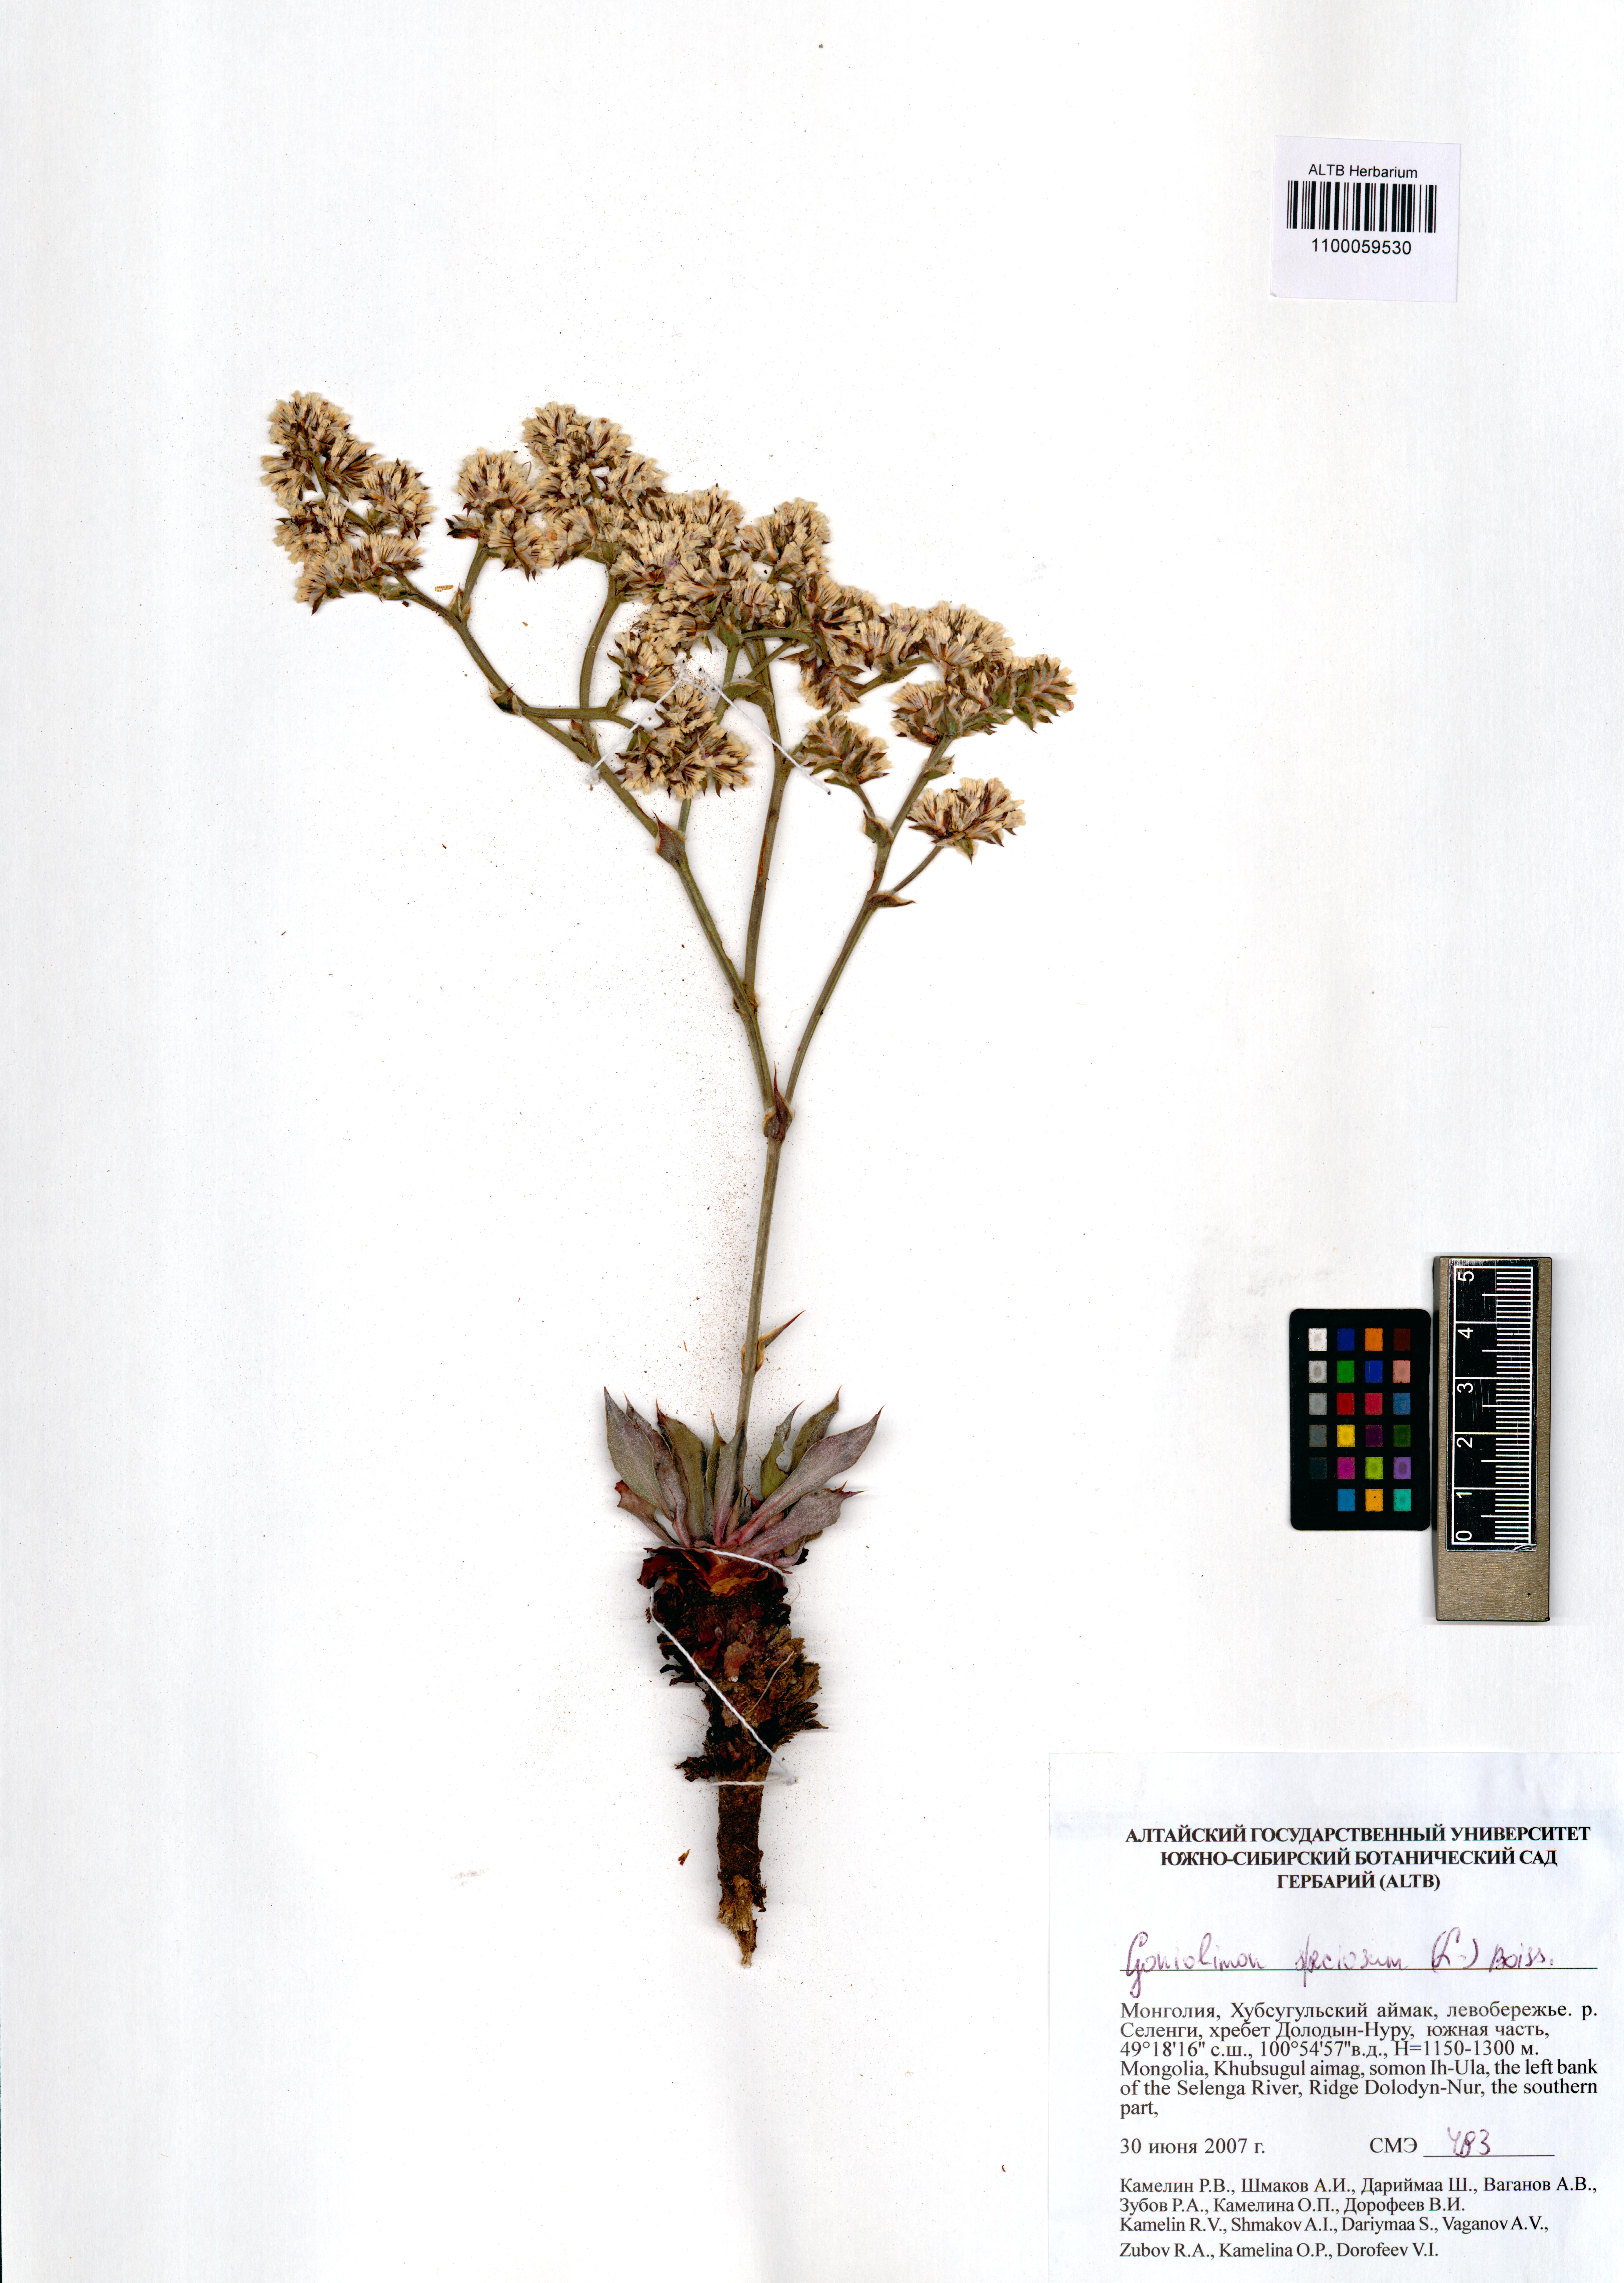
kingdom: Plantae
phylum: Tracheophyta
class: Magnoliopsida
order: Caryophyllales
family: Plumbaginaceae
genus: Goniolimon
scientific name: Goniolimon speciosum
